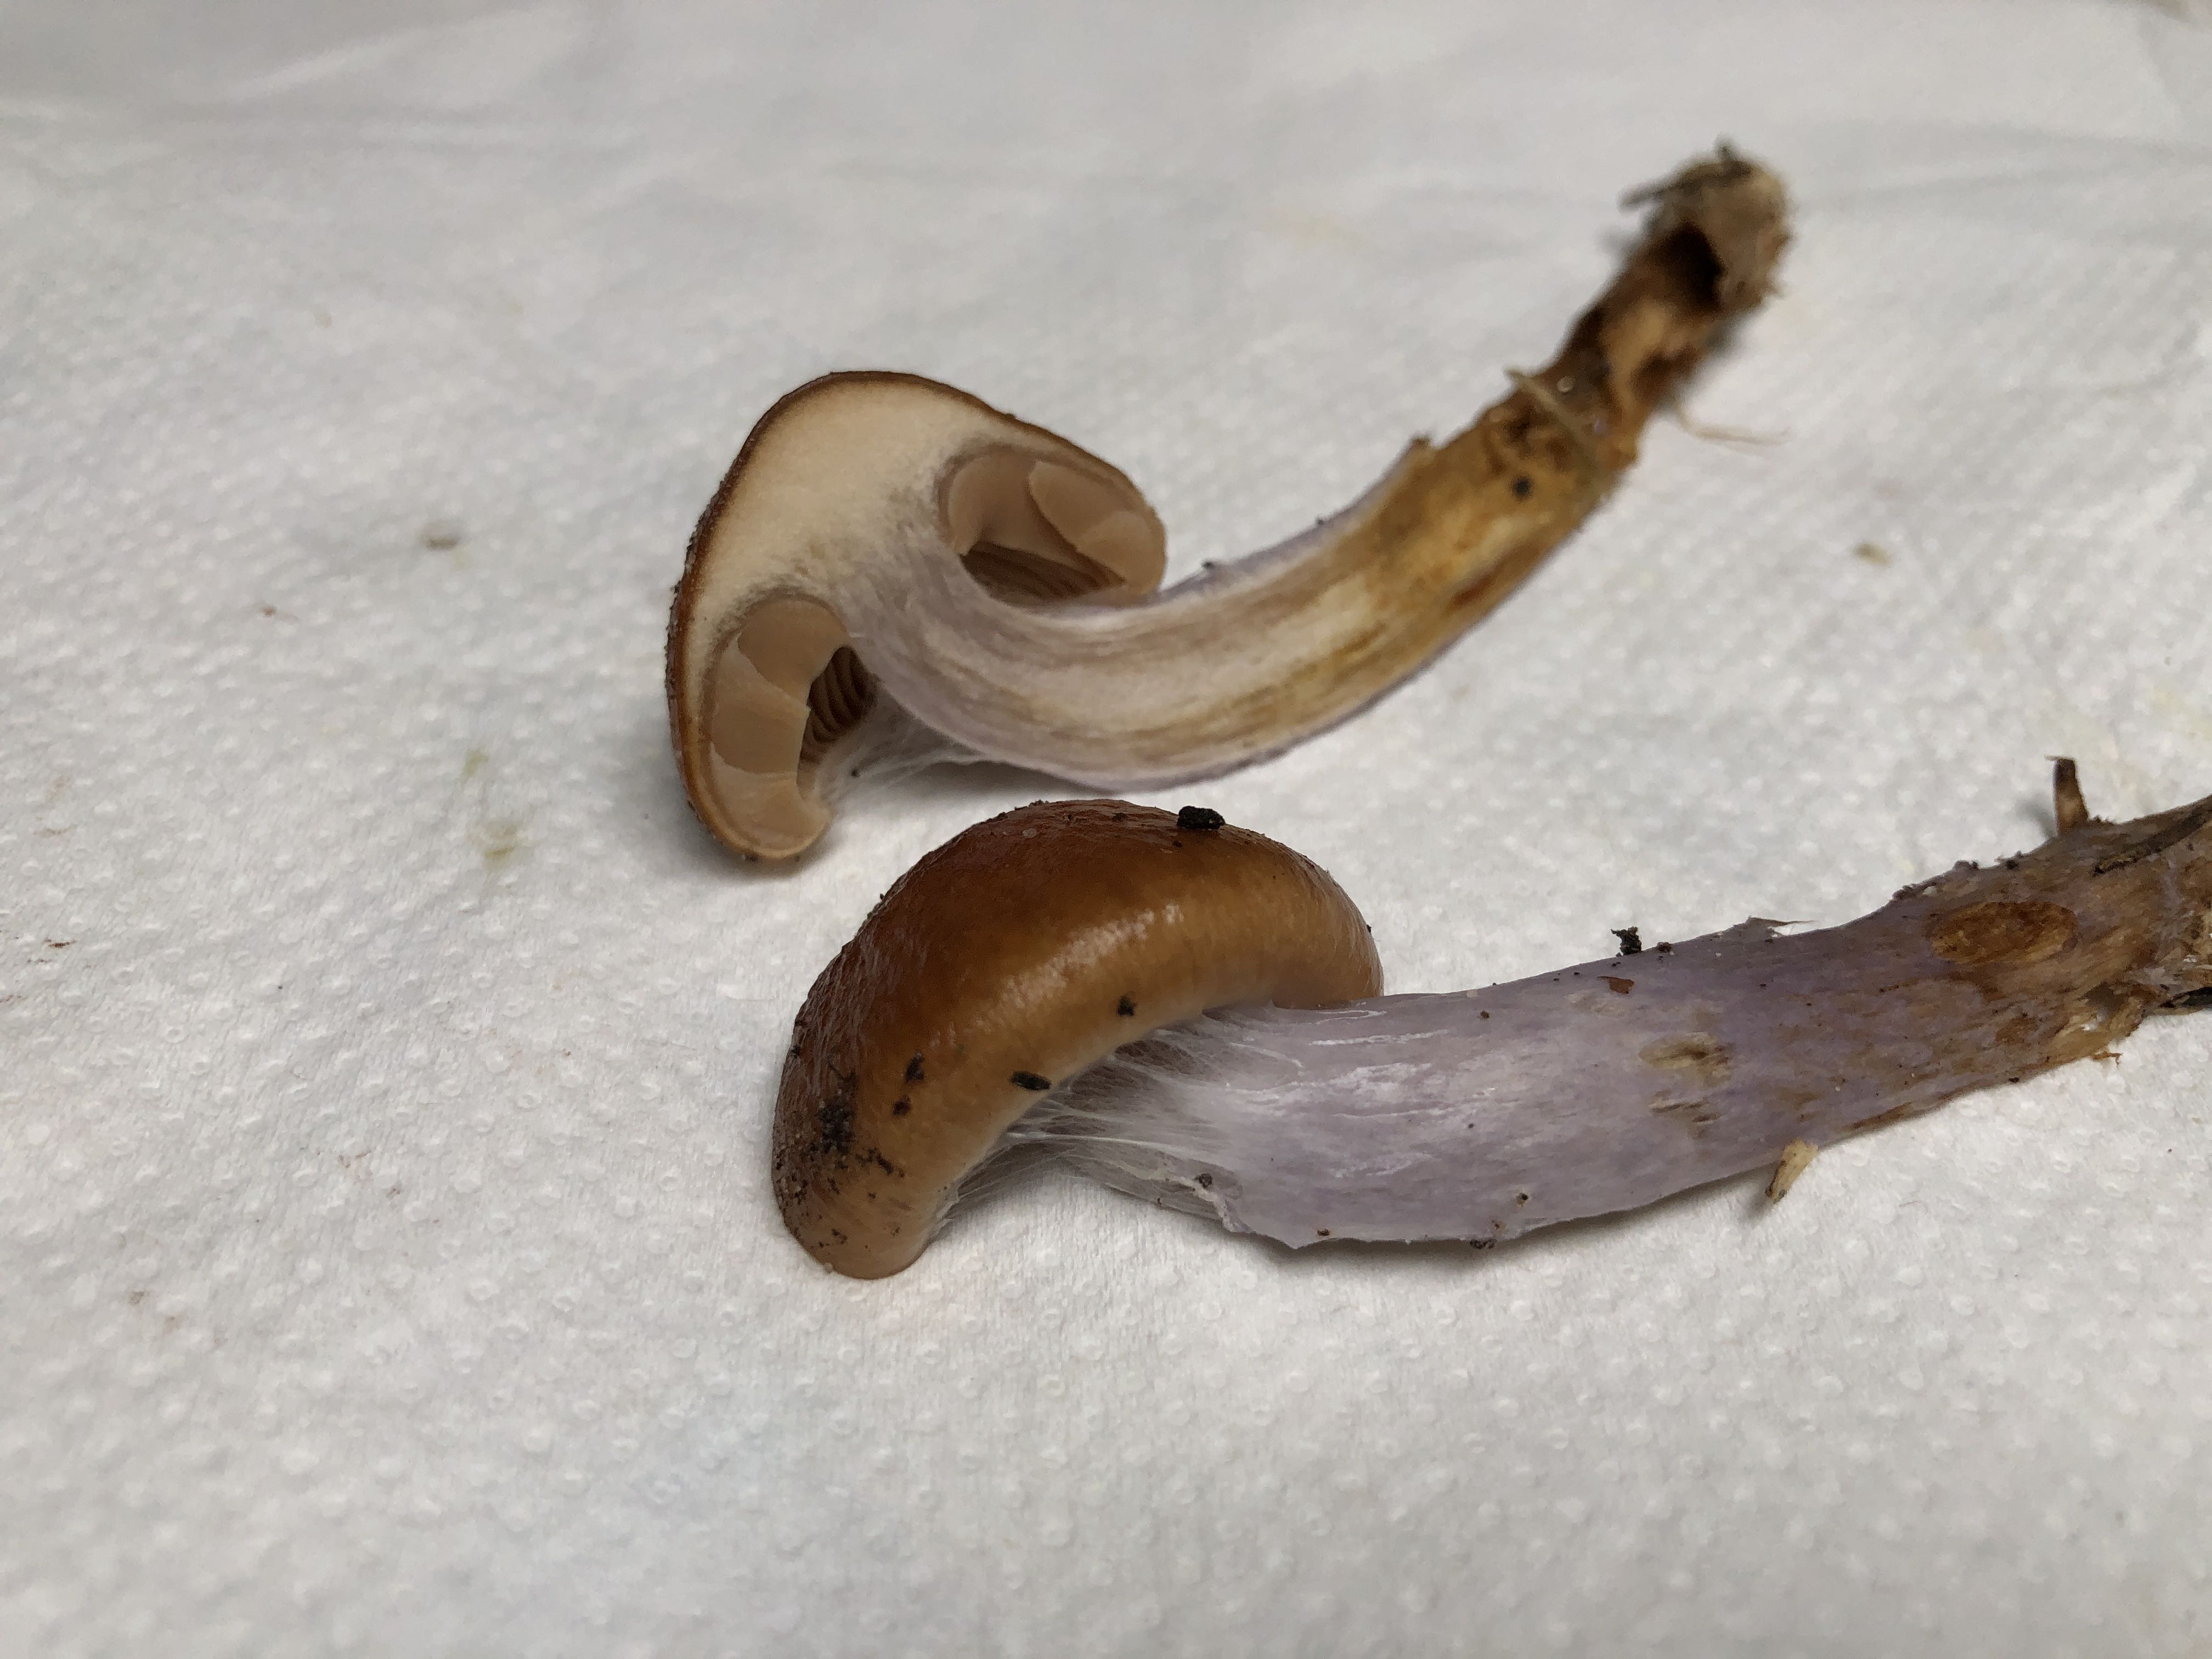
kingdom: Fungi
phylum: Basidiomycota
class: Agaricomycetes
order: Agaricales
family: Cortinariaceae
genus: Cortinarius
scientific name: Cortinarius collinitus
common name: spættet slørhat
